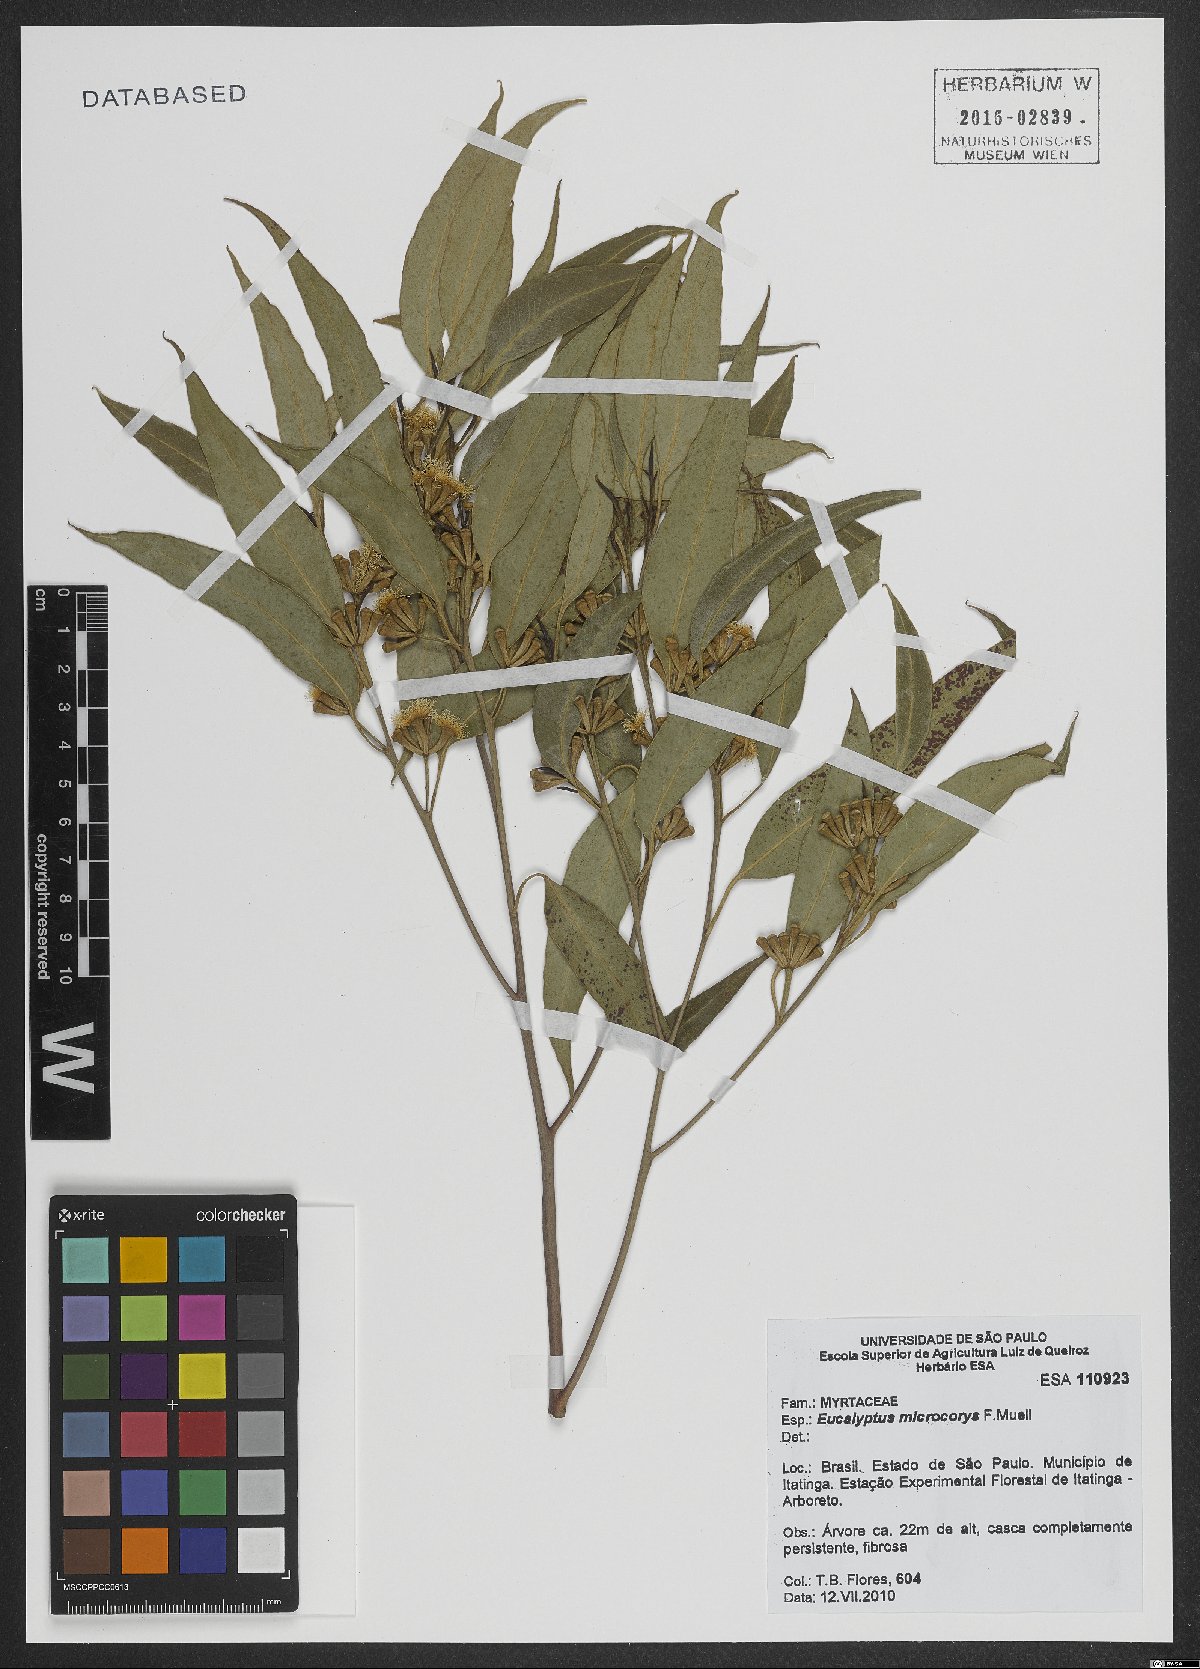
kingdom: Plantae
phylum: Tracheophyta
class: Magnoliopsida
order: Myrtales
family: Myrtaceae
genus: Eucalyptus
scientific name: Eucalyptus microcorys
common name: Tallowwood
